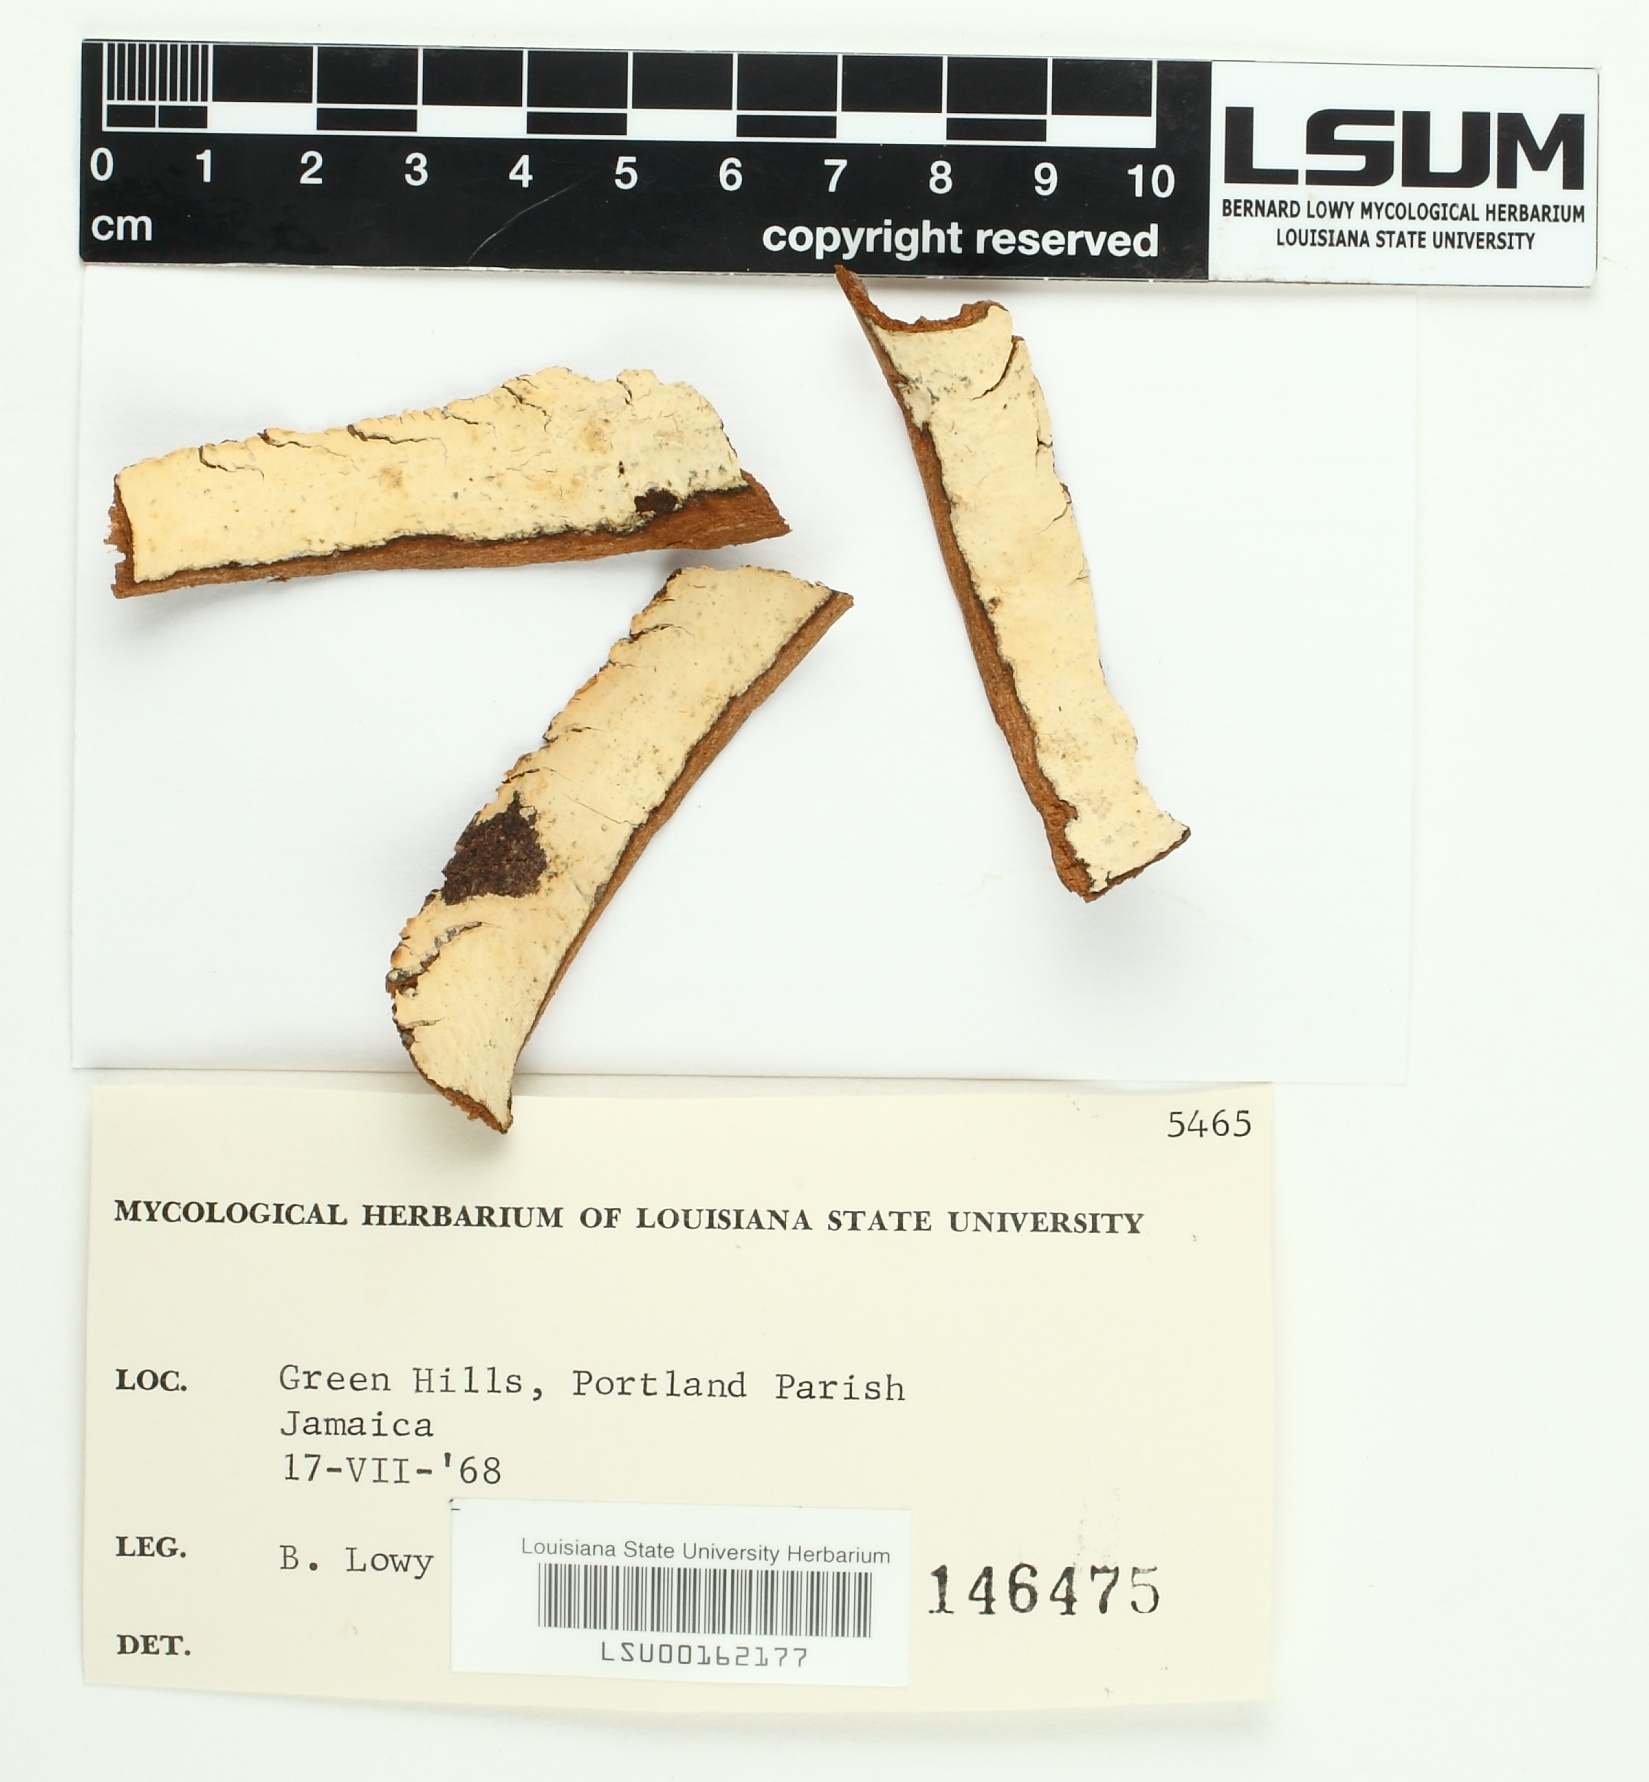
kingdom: Fungi
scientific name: Fungi
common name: Fungi
